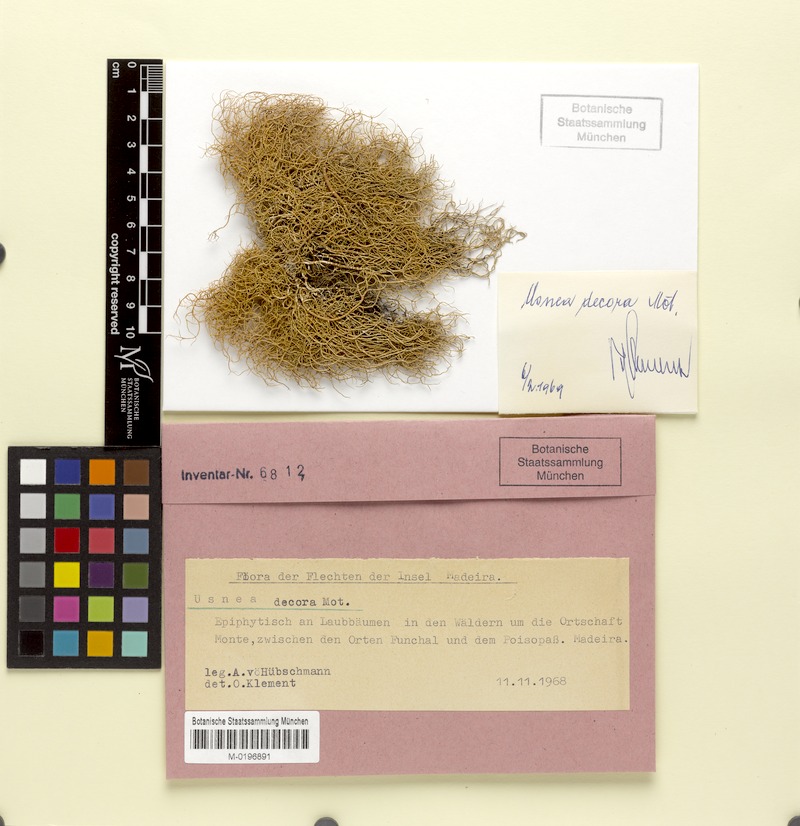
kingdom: Fungi
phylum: Ascomycota
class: Lecanoromycetes
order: Lecanorales
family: Parmeliaceae
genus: Usnea
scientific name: Usnea plicata
